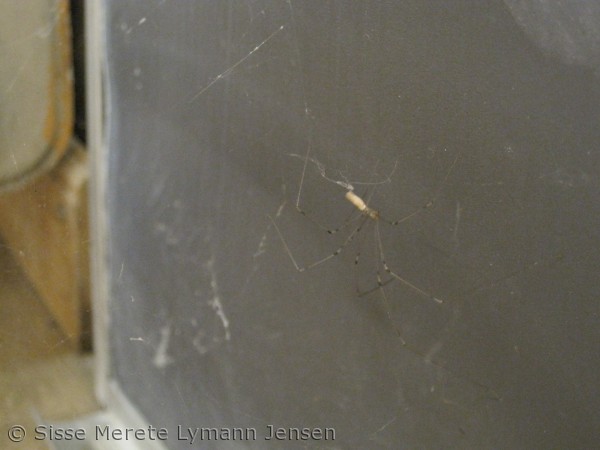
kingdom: Animalia
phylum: Arthropoda
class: Arachnida
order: Araneae
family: Pholcidae
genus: Pholcus
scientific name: Pholcus phalangioides
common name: Mejeredderkop
